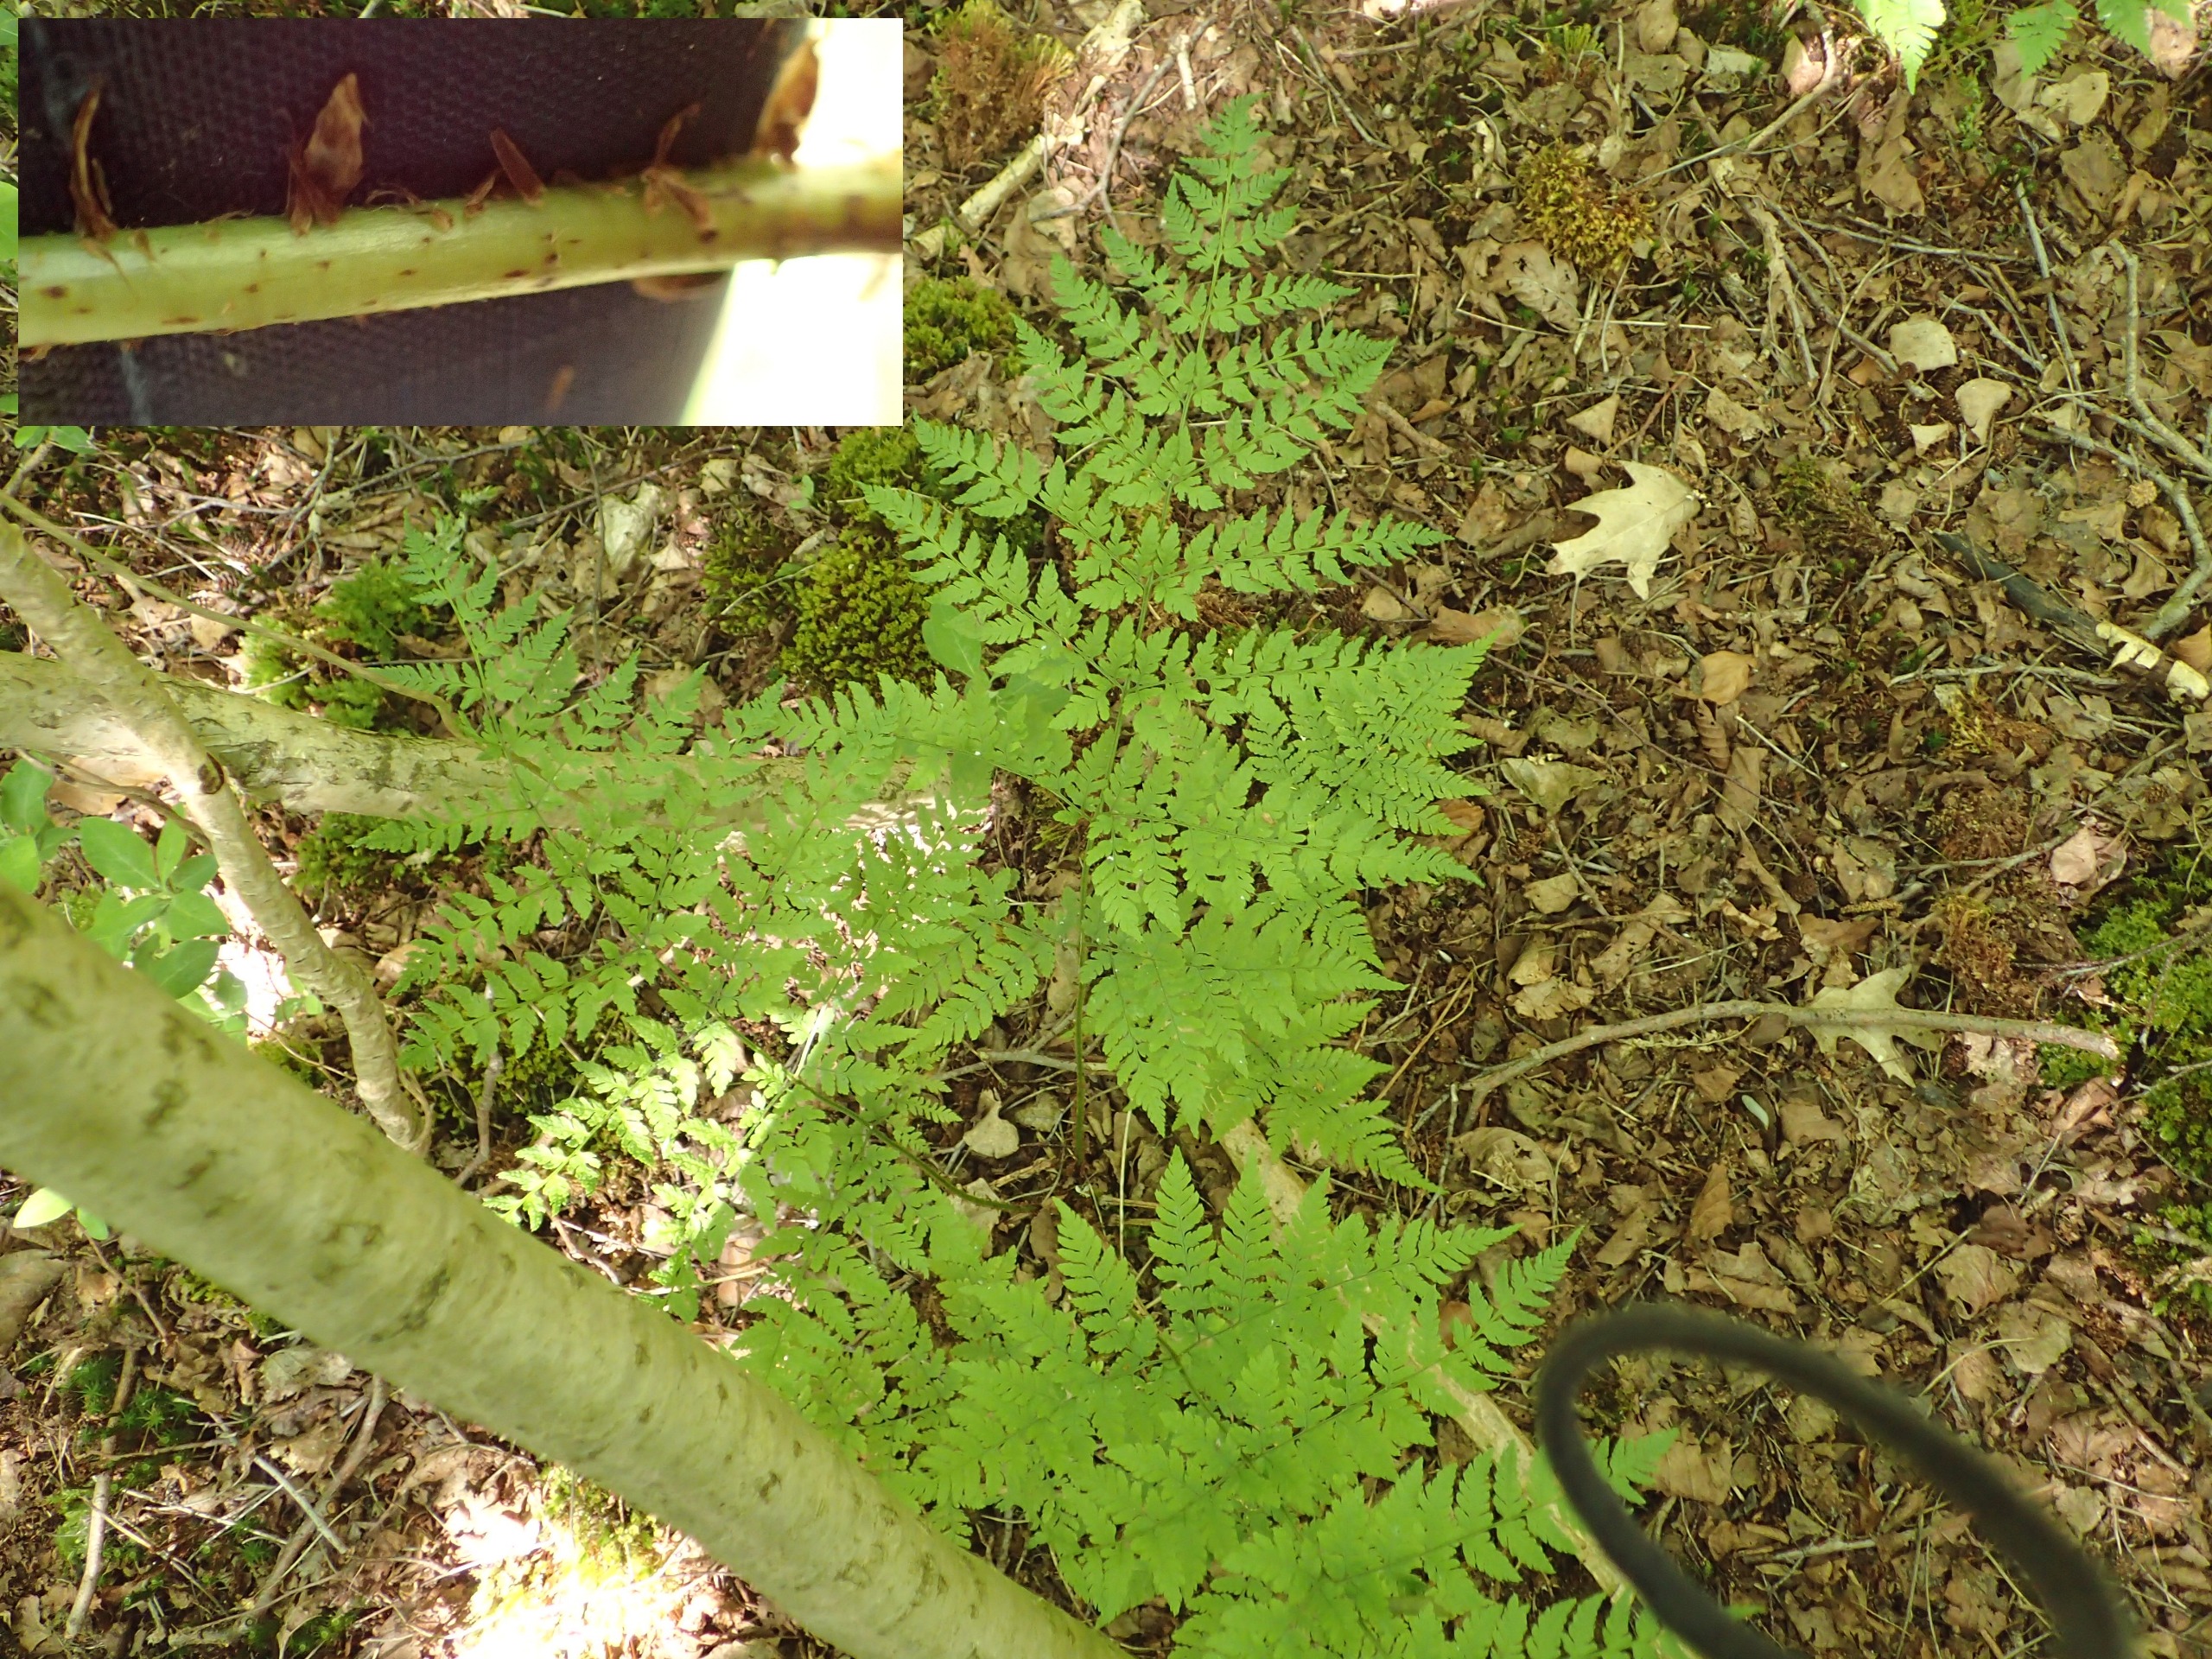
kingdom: Plantae
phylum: Tracheophyta
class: Polypodiopsida
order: Polypodiales
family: Dryopteridaceae
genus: Dryopteris
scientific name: Dryopteris expansa
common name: Finbladet mangeløv
